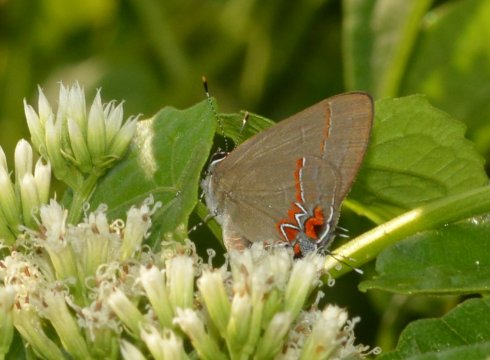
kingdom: Animalia
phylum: Arthropoda
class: Insecta
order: Lepidoptera
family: Lycaenidae
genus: Calycopis
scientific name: Calycopis isobeon
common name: Dusky-blue Groundstreak
